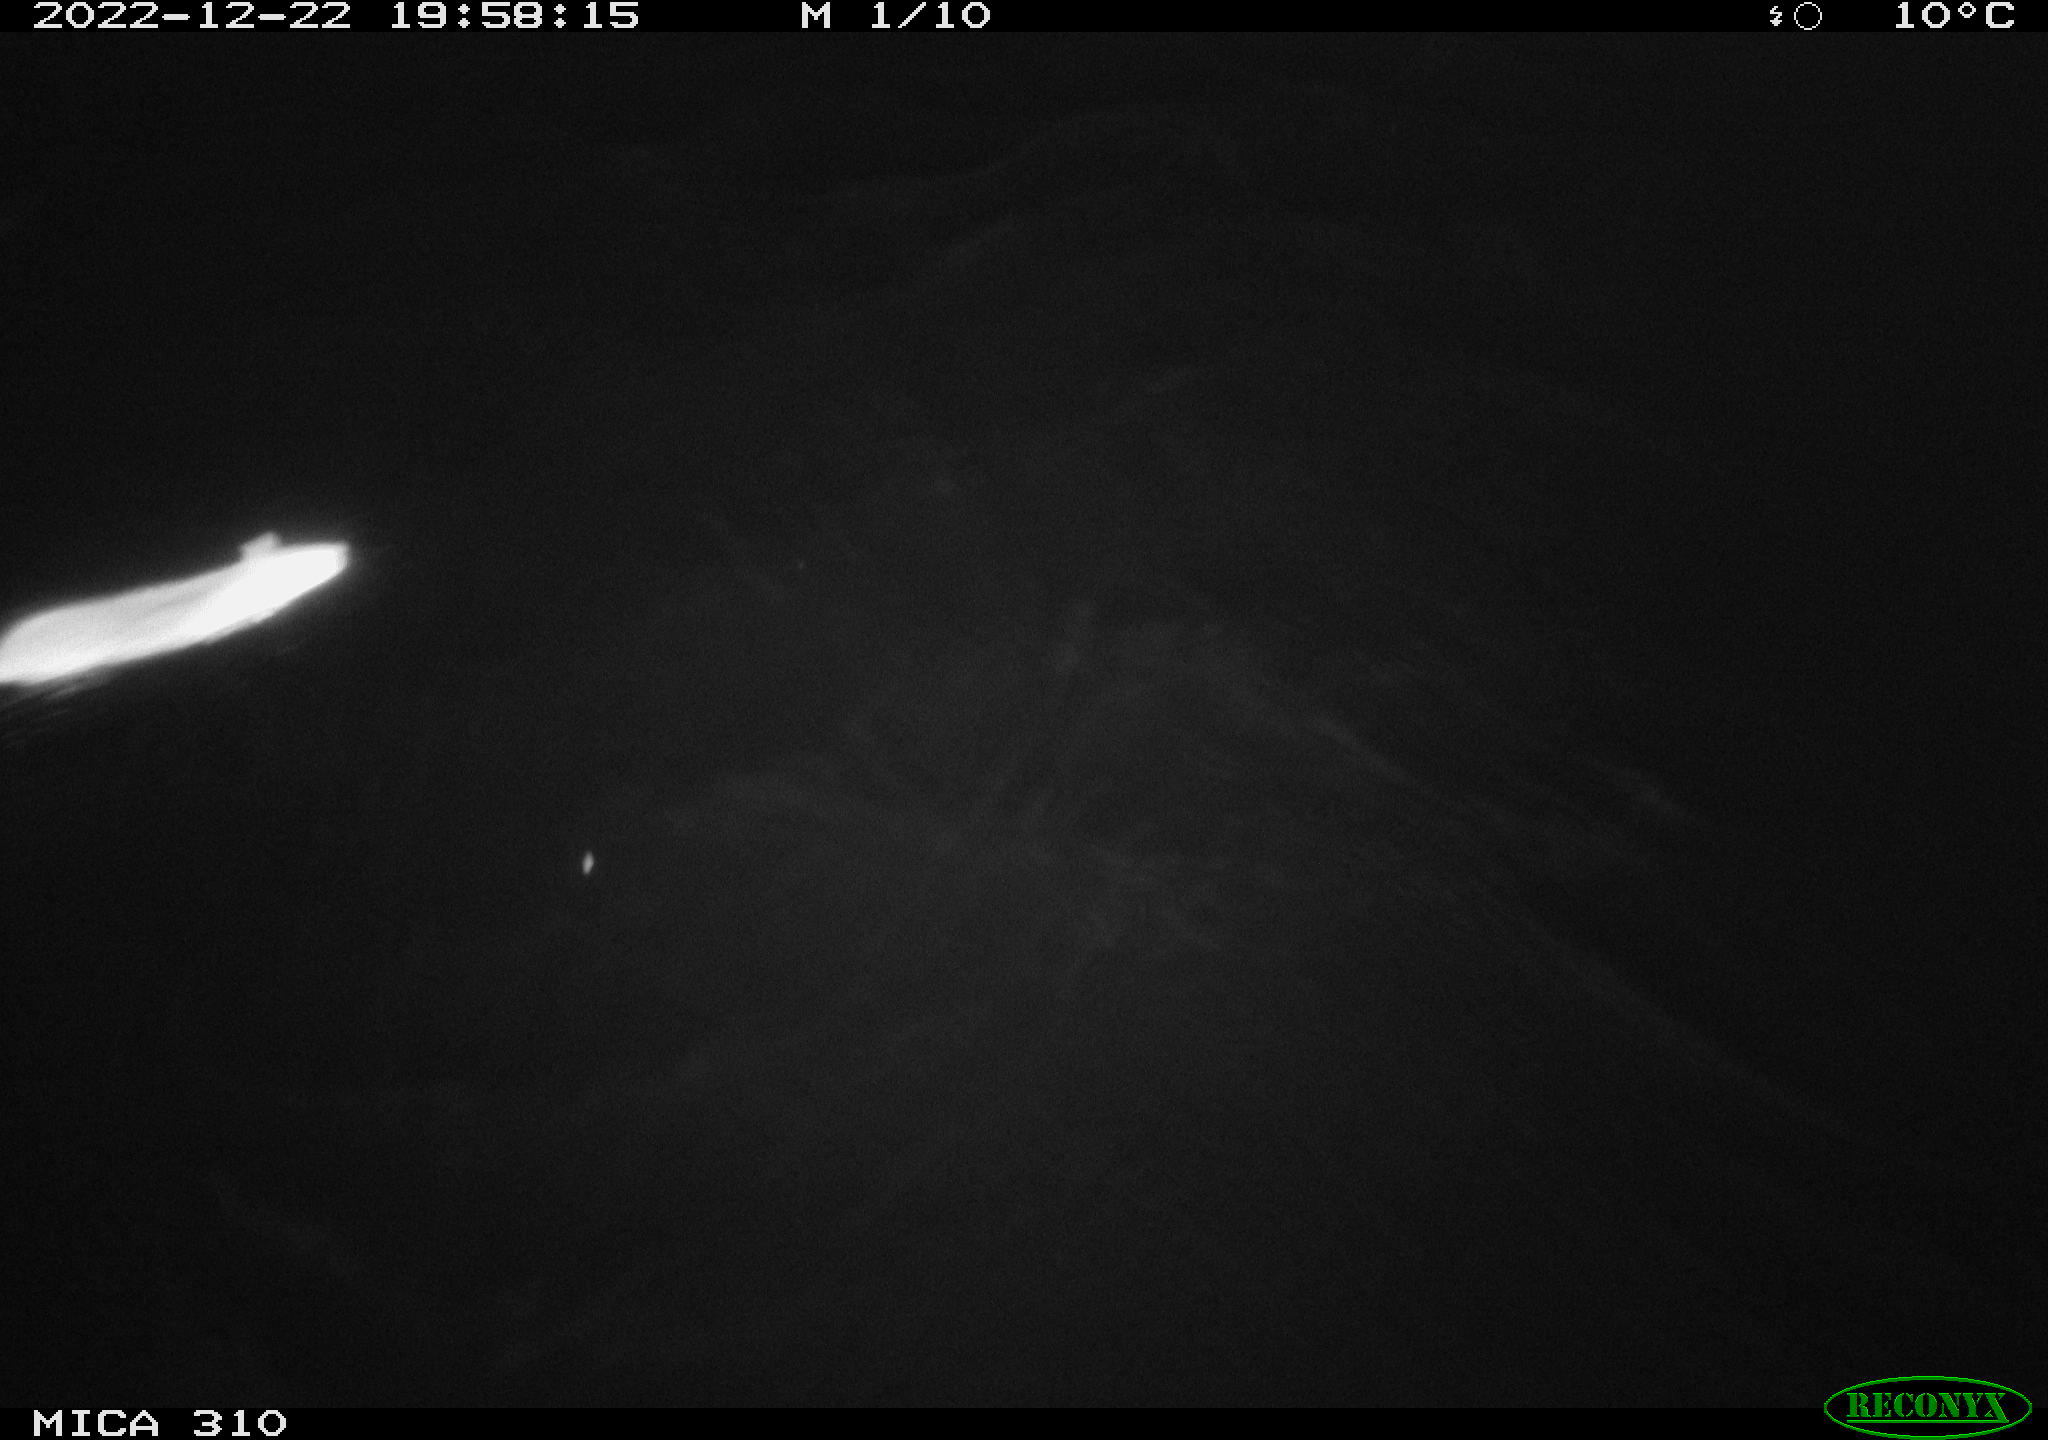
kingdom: Animalia
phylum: Chordata
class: Mammalia
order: Rodentia
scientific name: Rodentia
